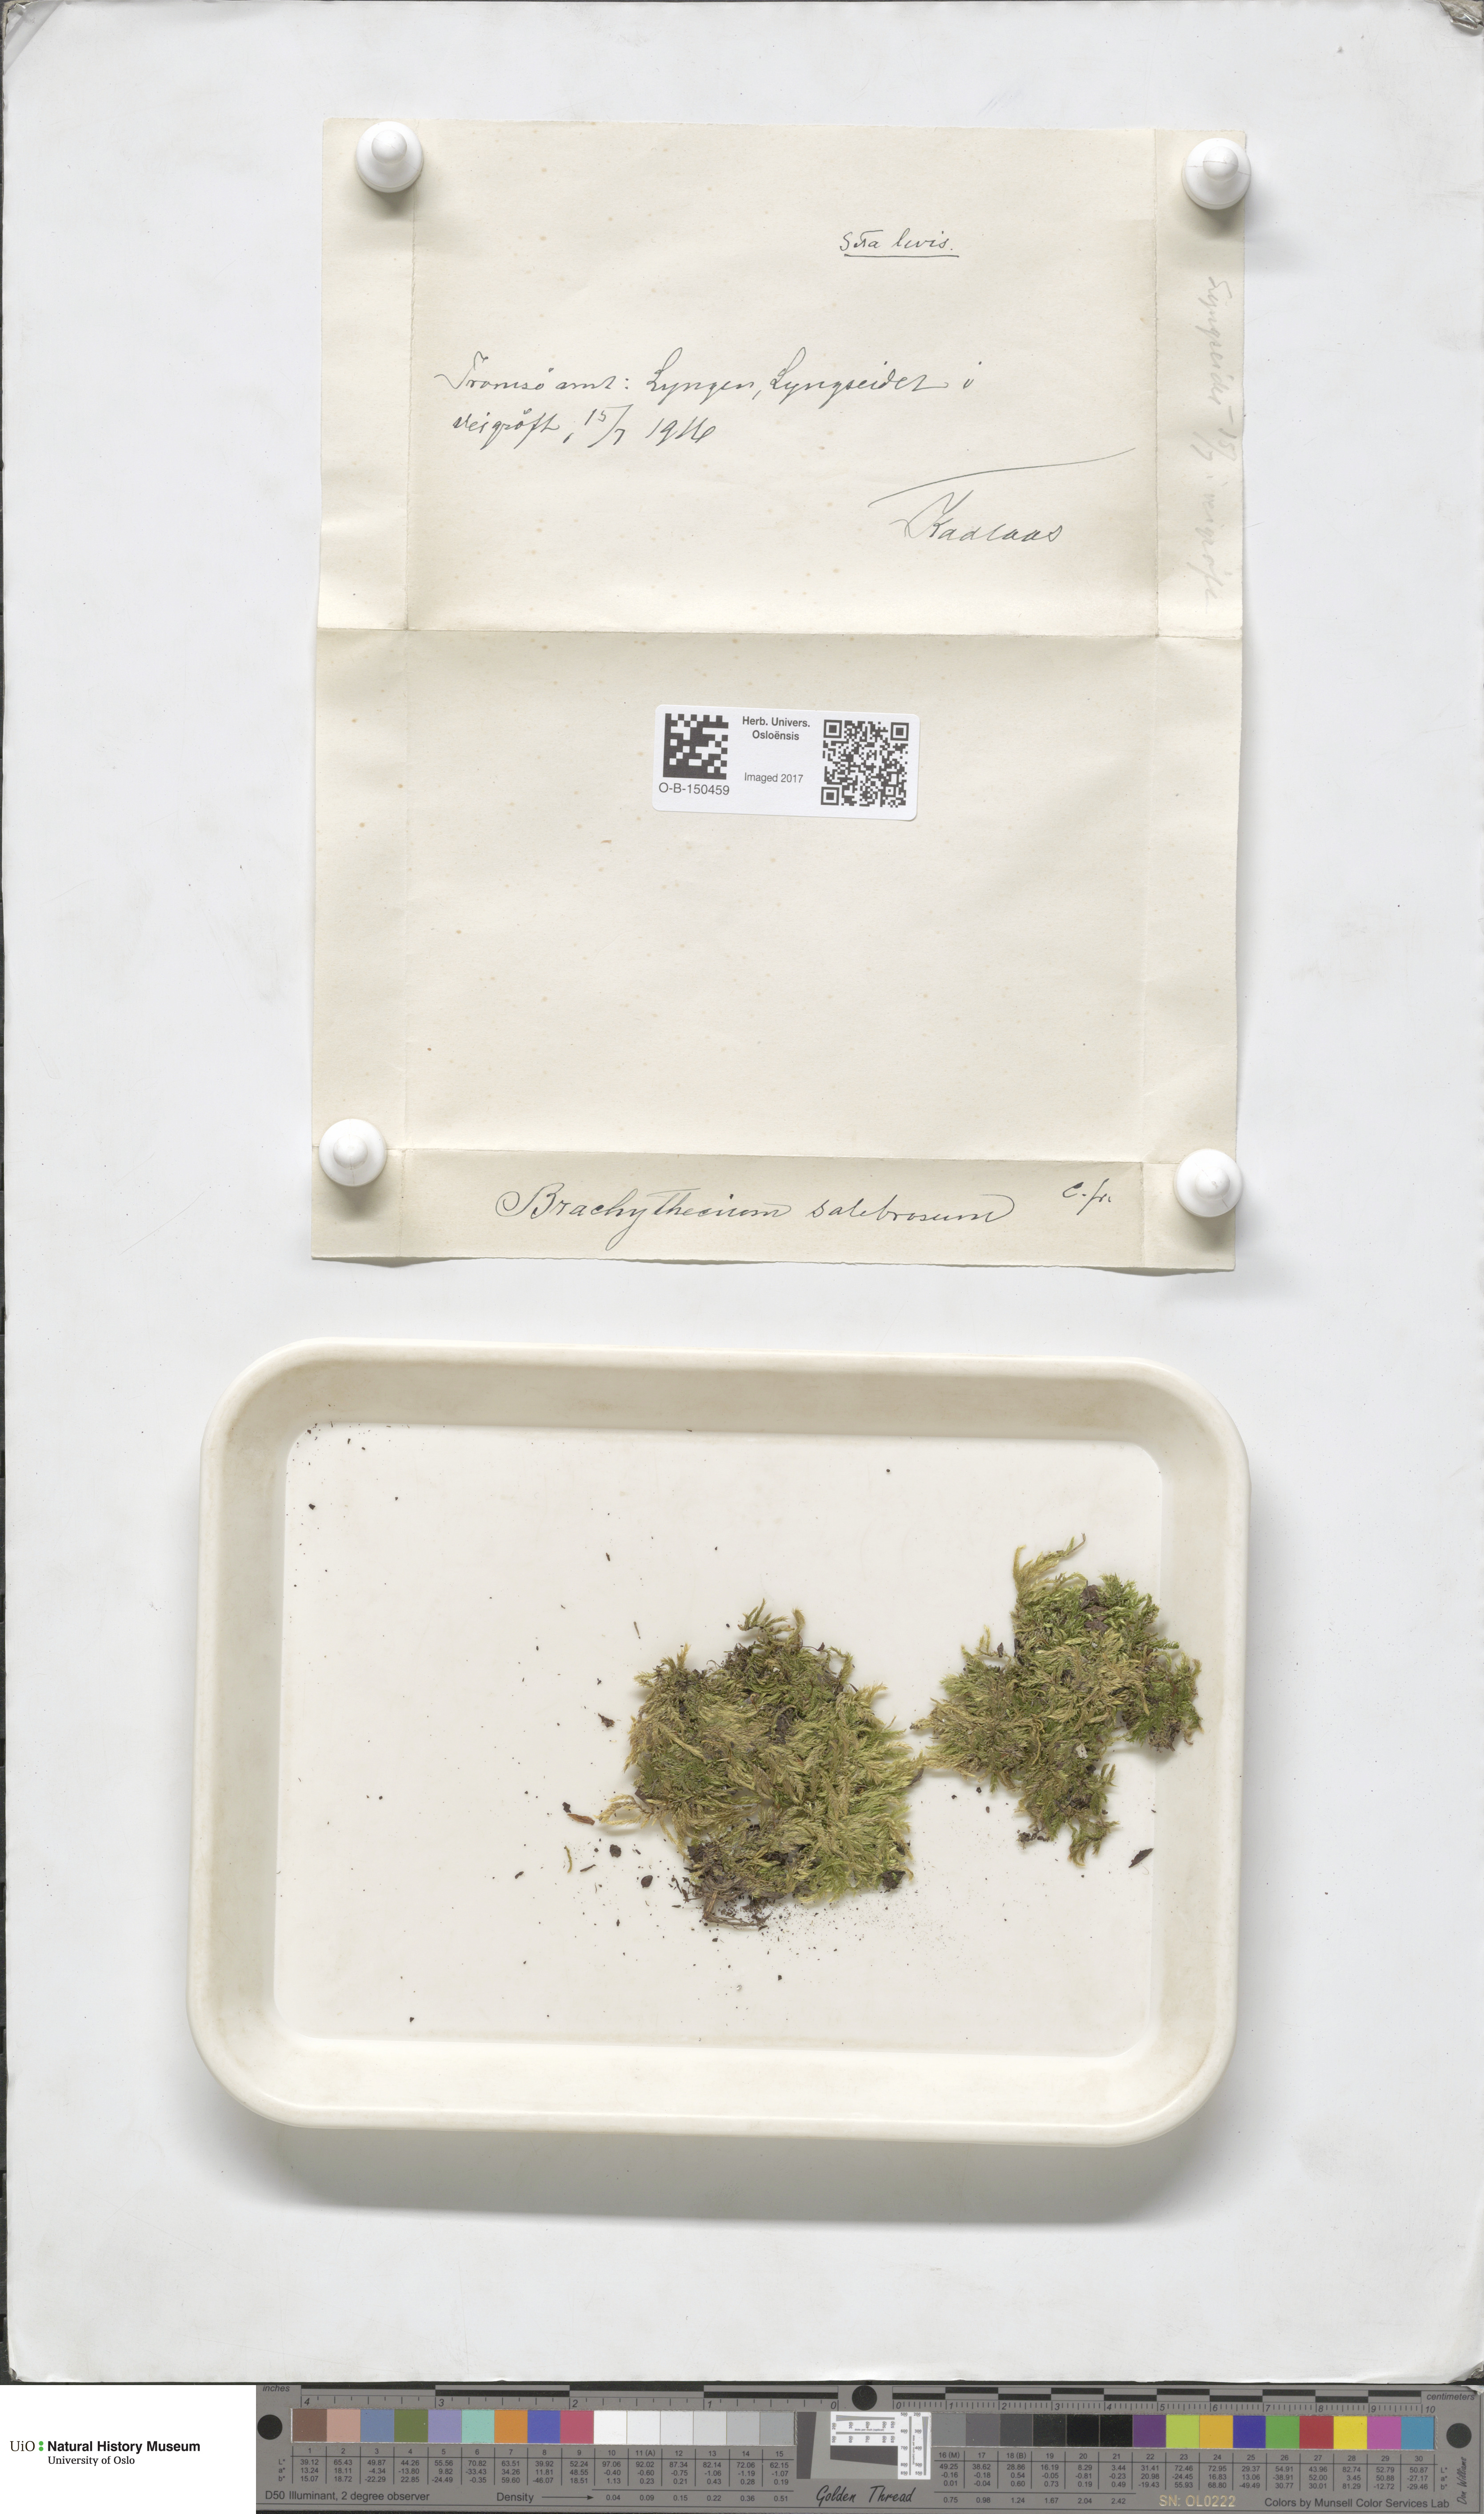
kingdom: Plantae
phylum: Bryophyta
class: Bryopsida
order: Hypnales
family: Brachytheciaceae
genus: Brachythecium
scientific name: Brachythecium salebrosum
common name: Smooth-stalk feather-moss
